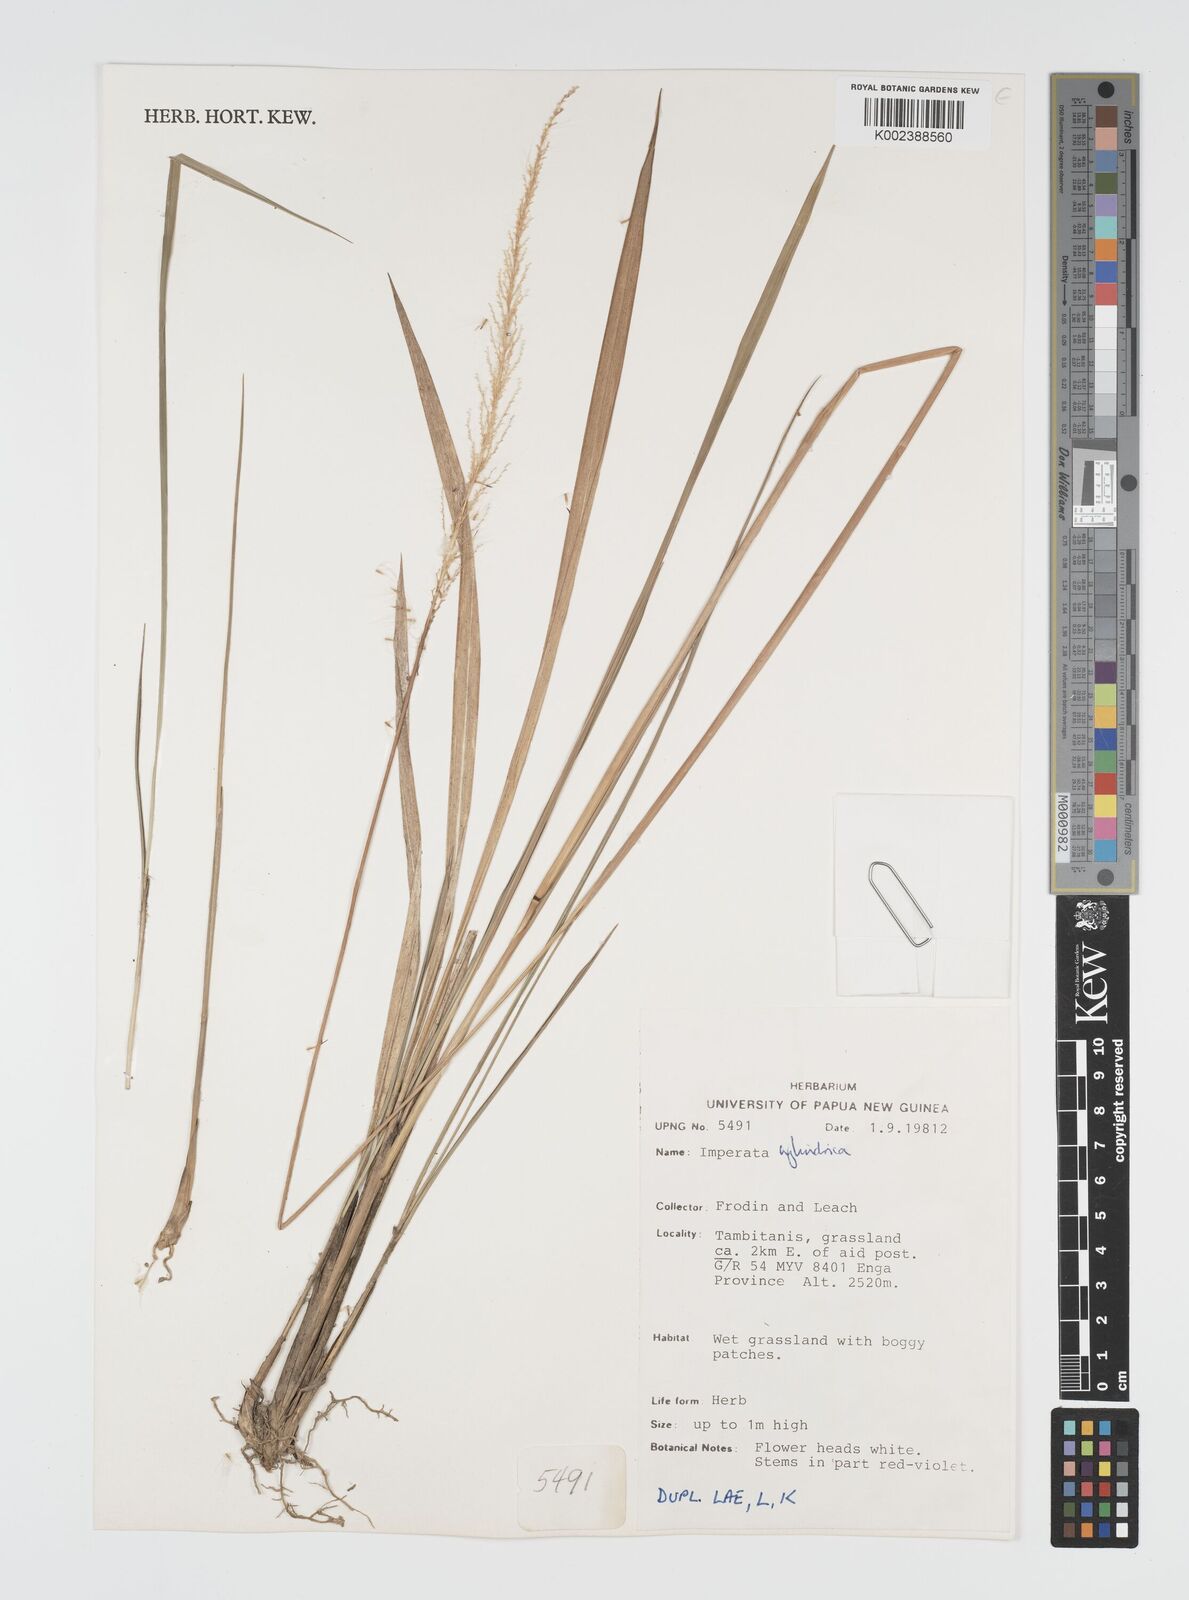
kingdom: Plantae
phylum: Tracheophyta
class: Liliopsida
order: Poales
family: Poaceae
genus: Imperata
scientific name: Imperata cylindrica
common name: Cogongrass
